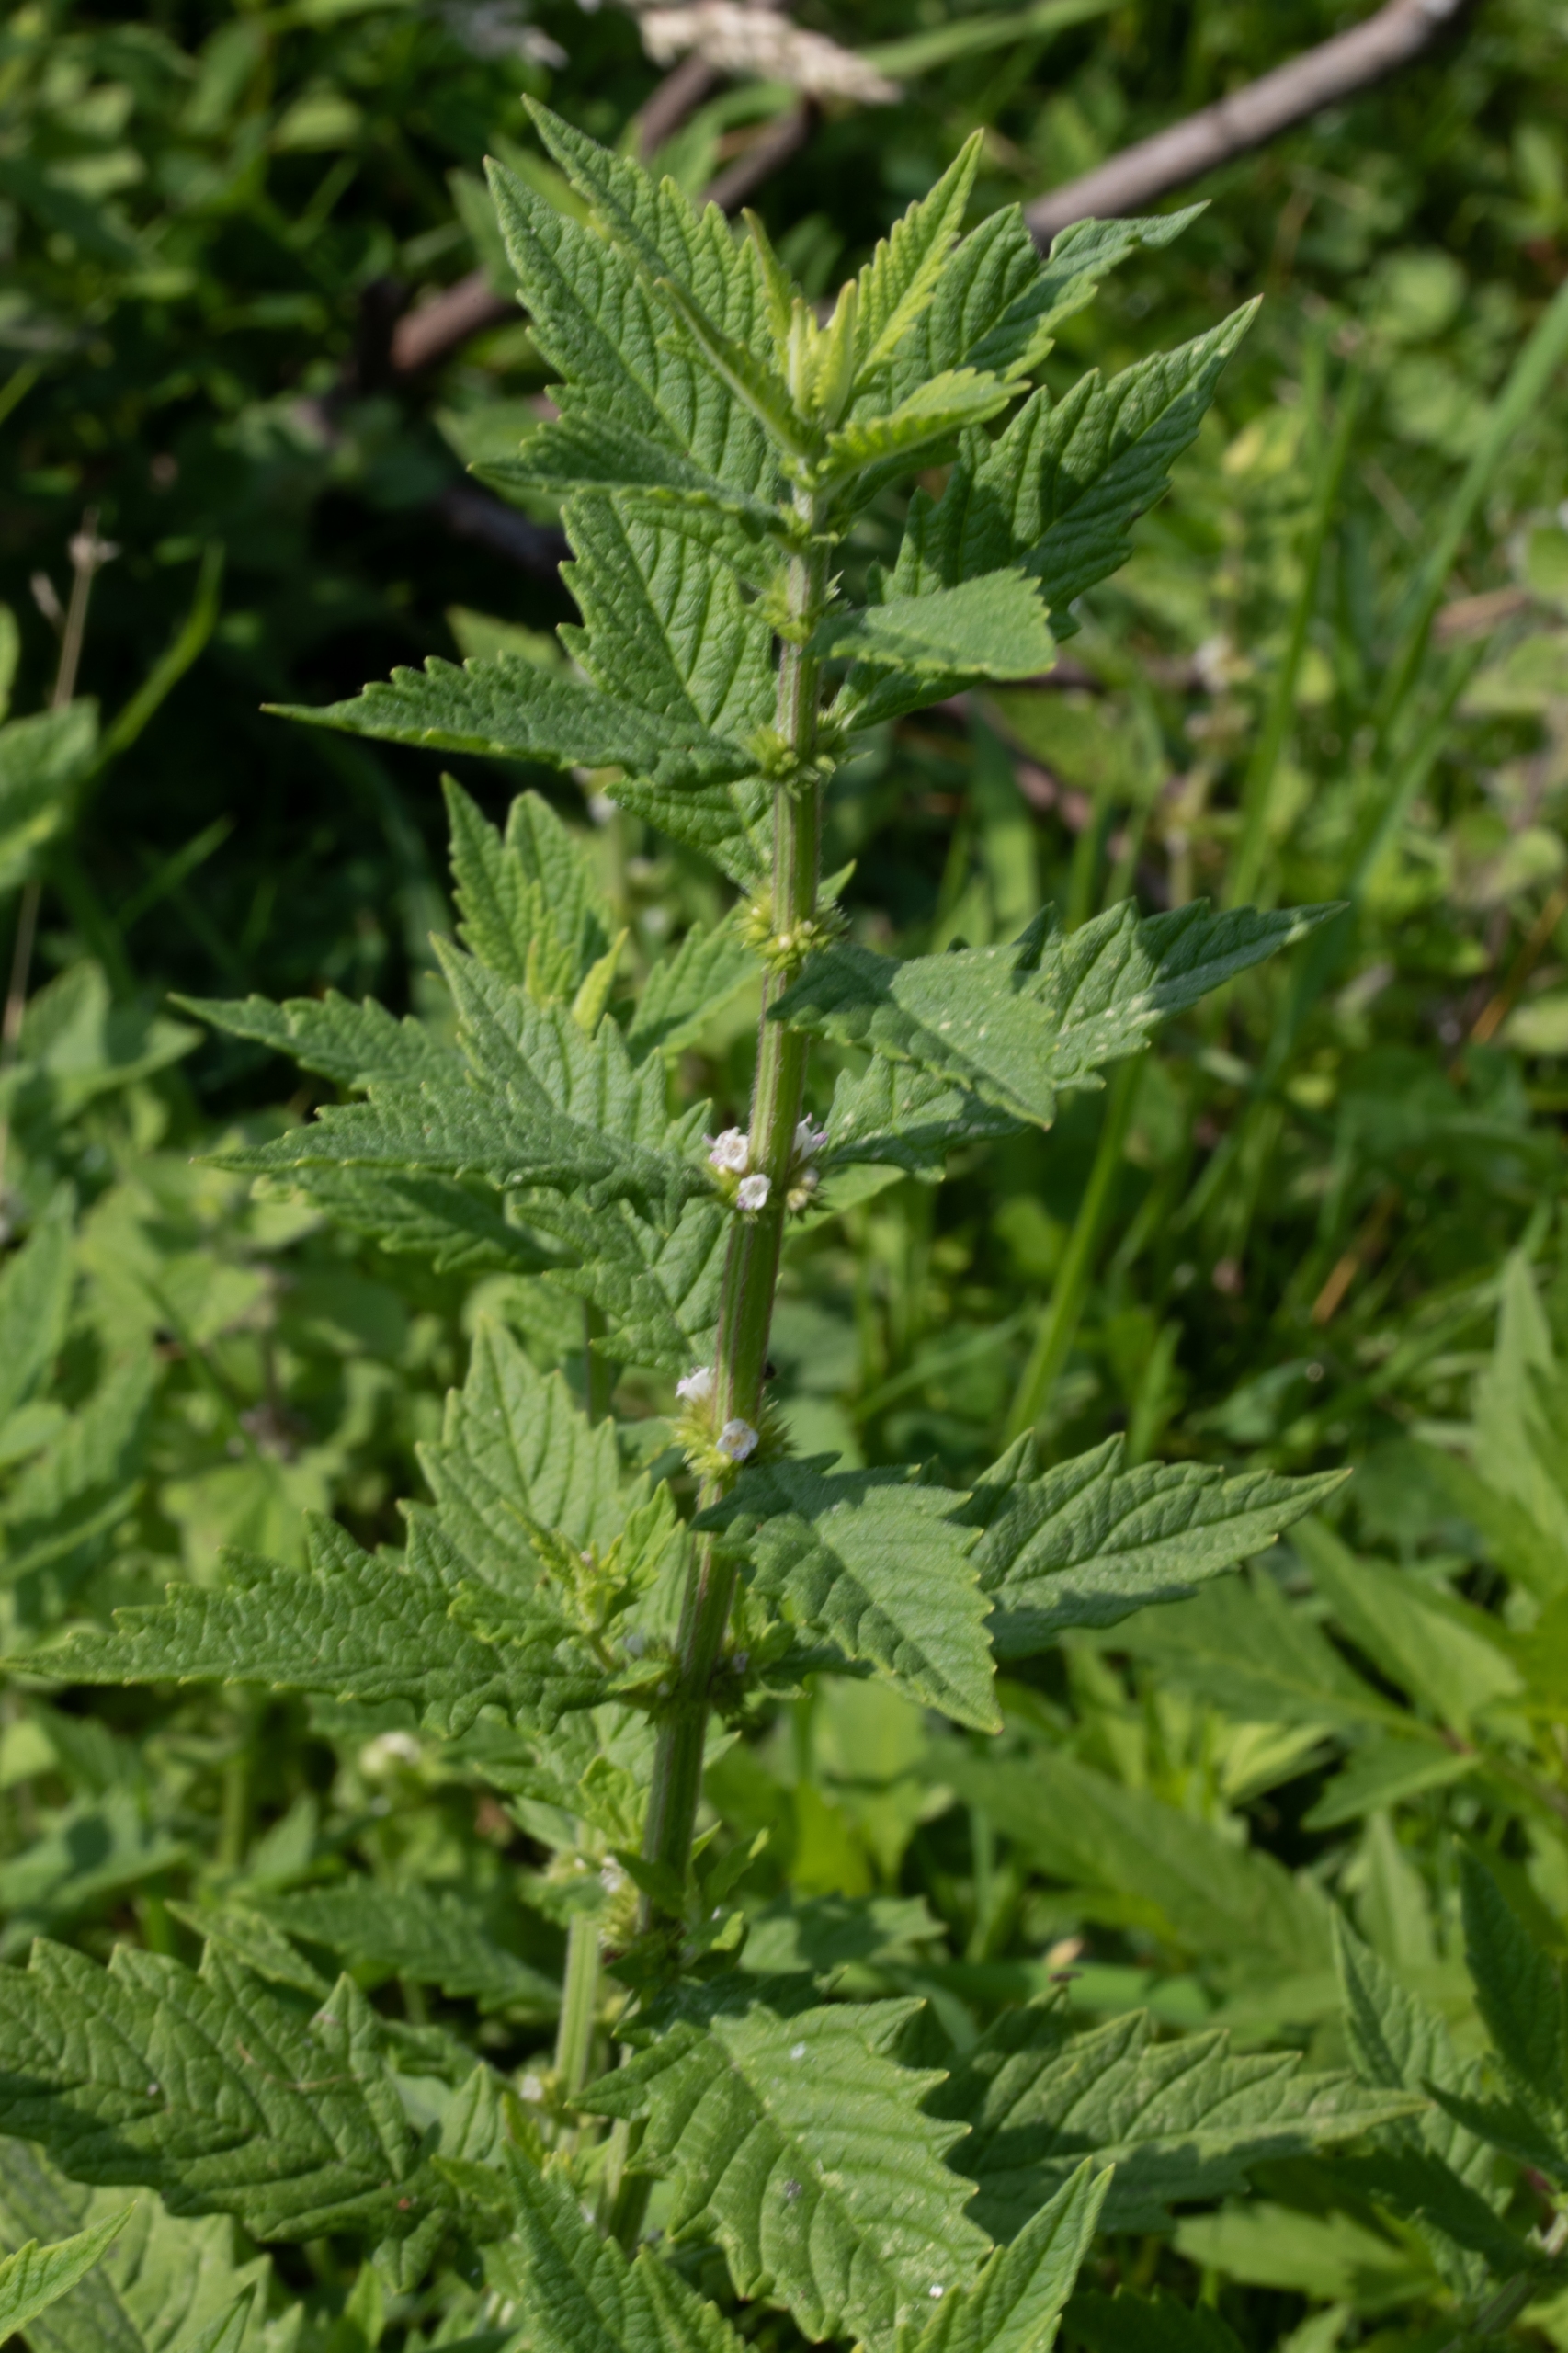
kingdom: Plantae
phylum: Tracheophyta
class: Magnoliopsida
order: Lamiales
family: Lamiaceae
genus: Lycopus
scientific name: Lycopus europaeus
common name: Sværtevæld
